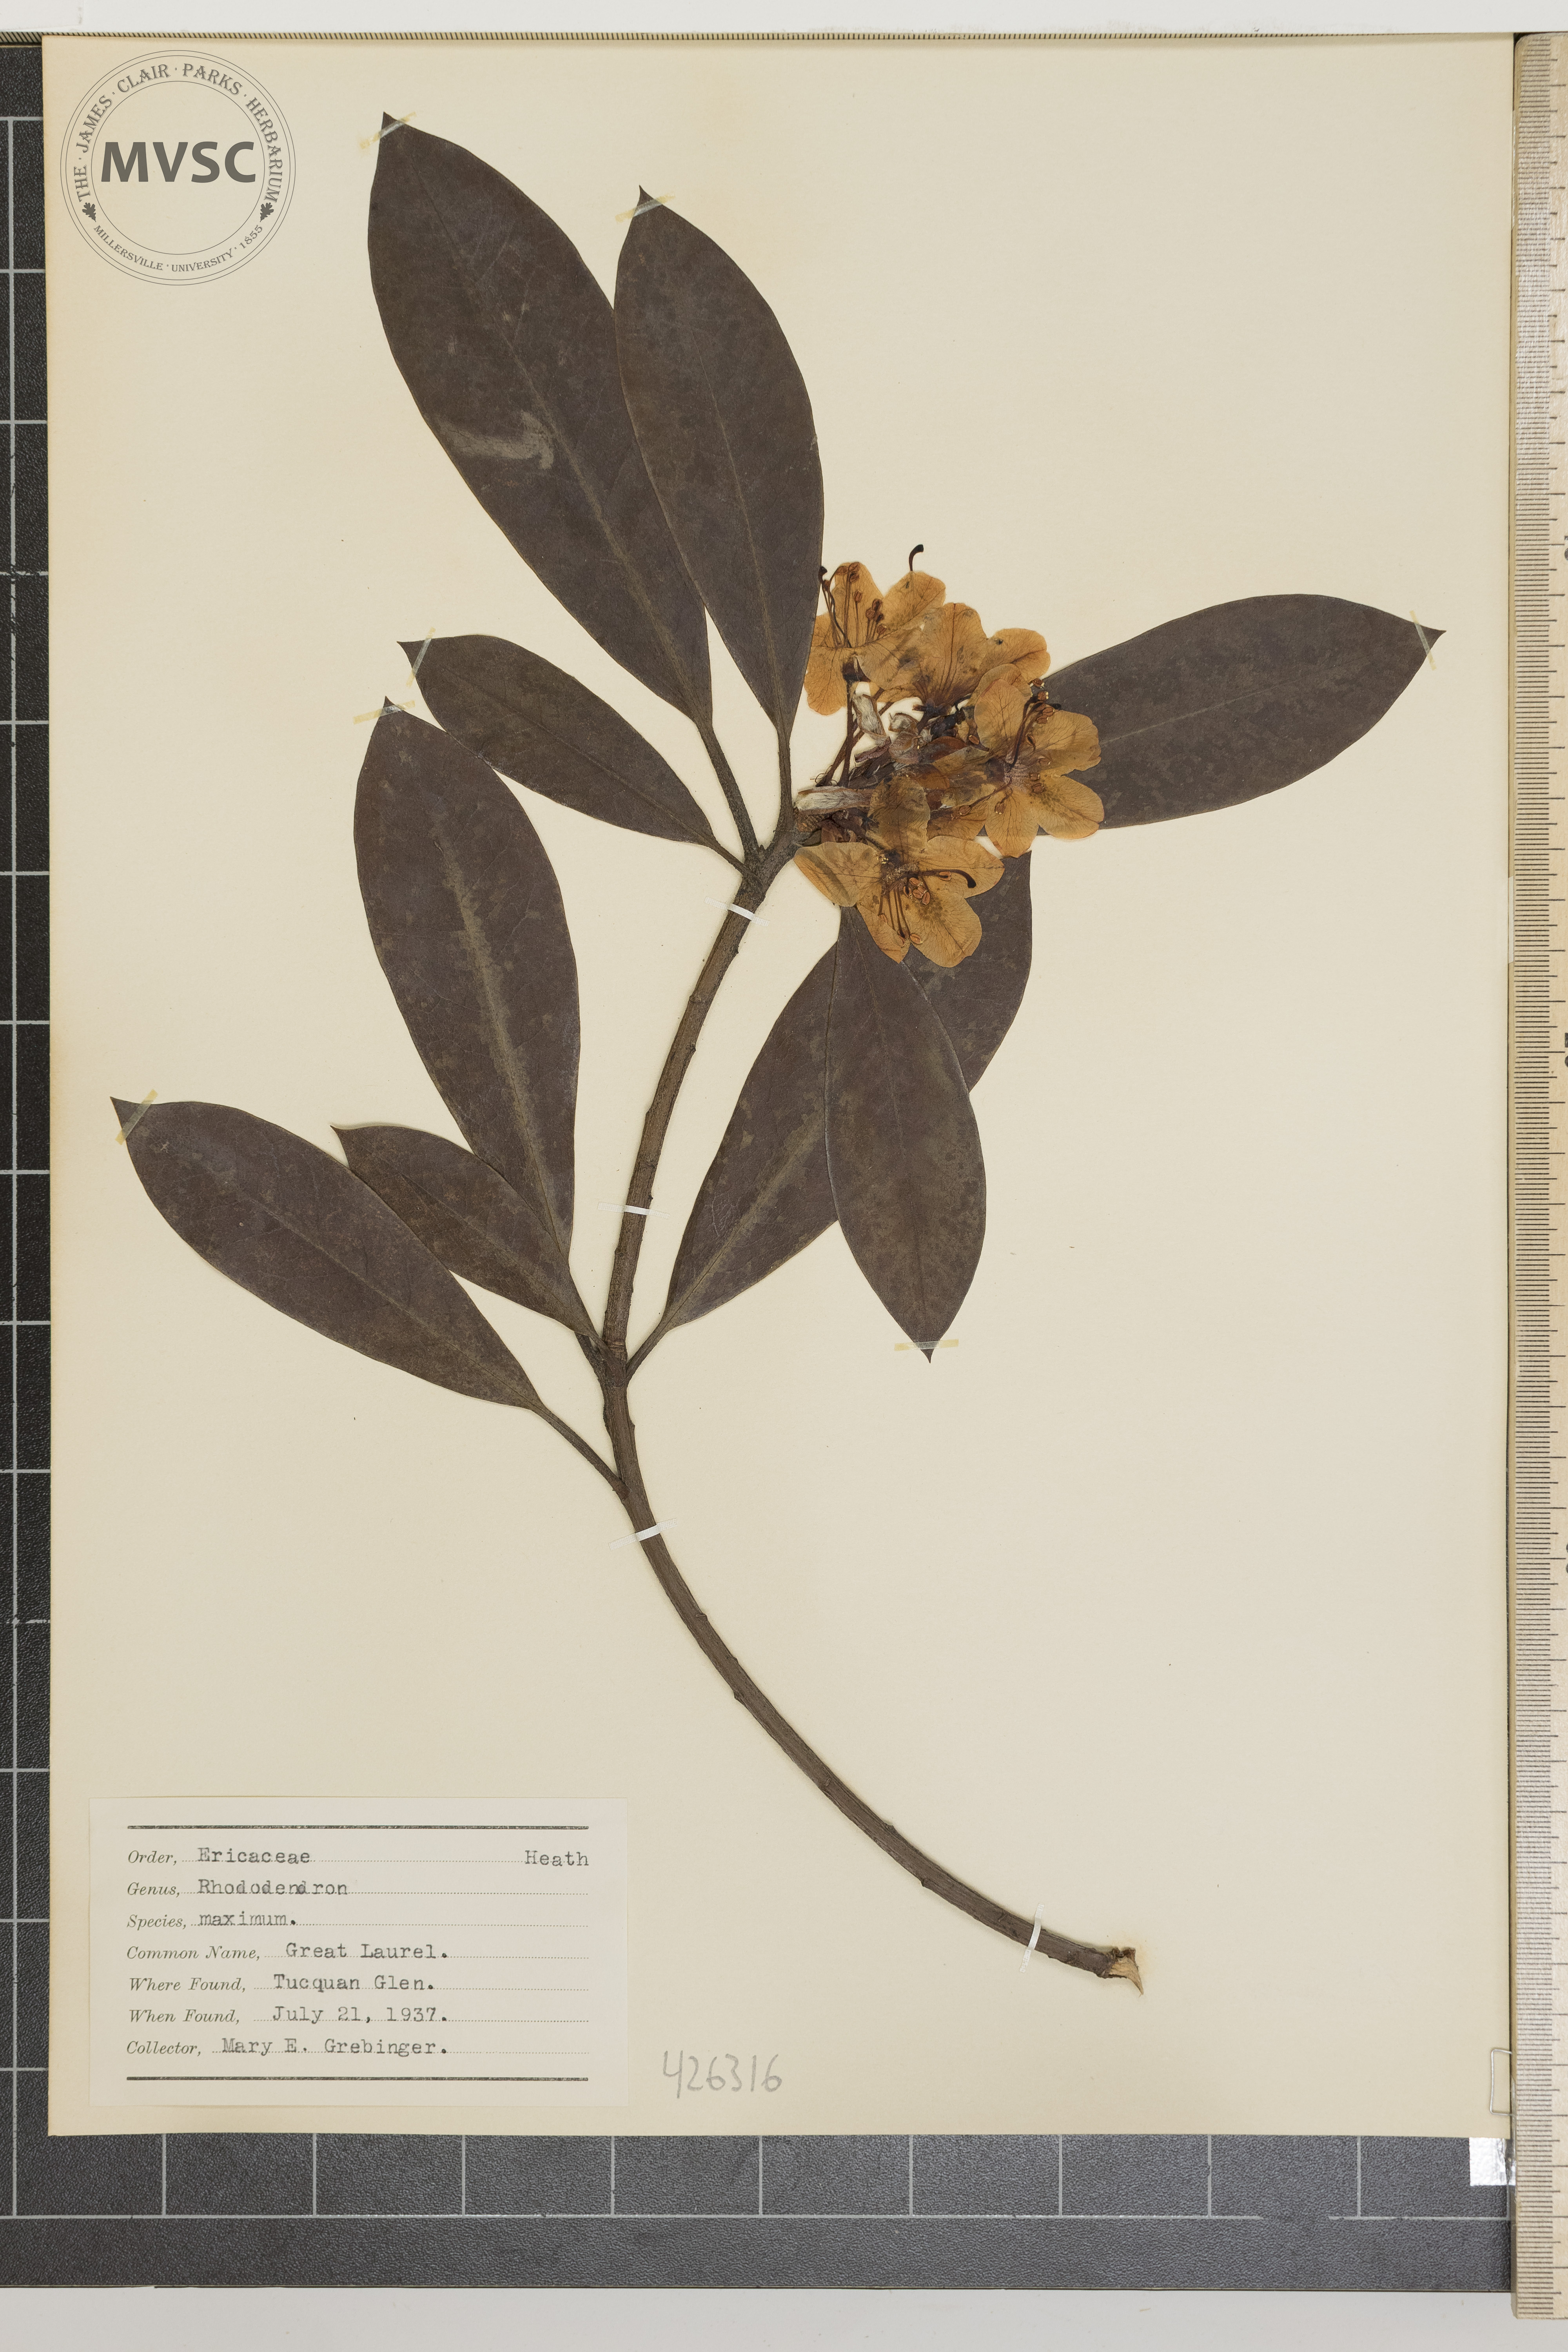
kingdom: Plantae
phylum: Tracheophyta
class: Magnoliopsida
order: Ericales
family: Ericaceae
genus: Rhododendron
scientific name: Rhododendron maximum
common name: Great laurel
